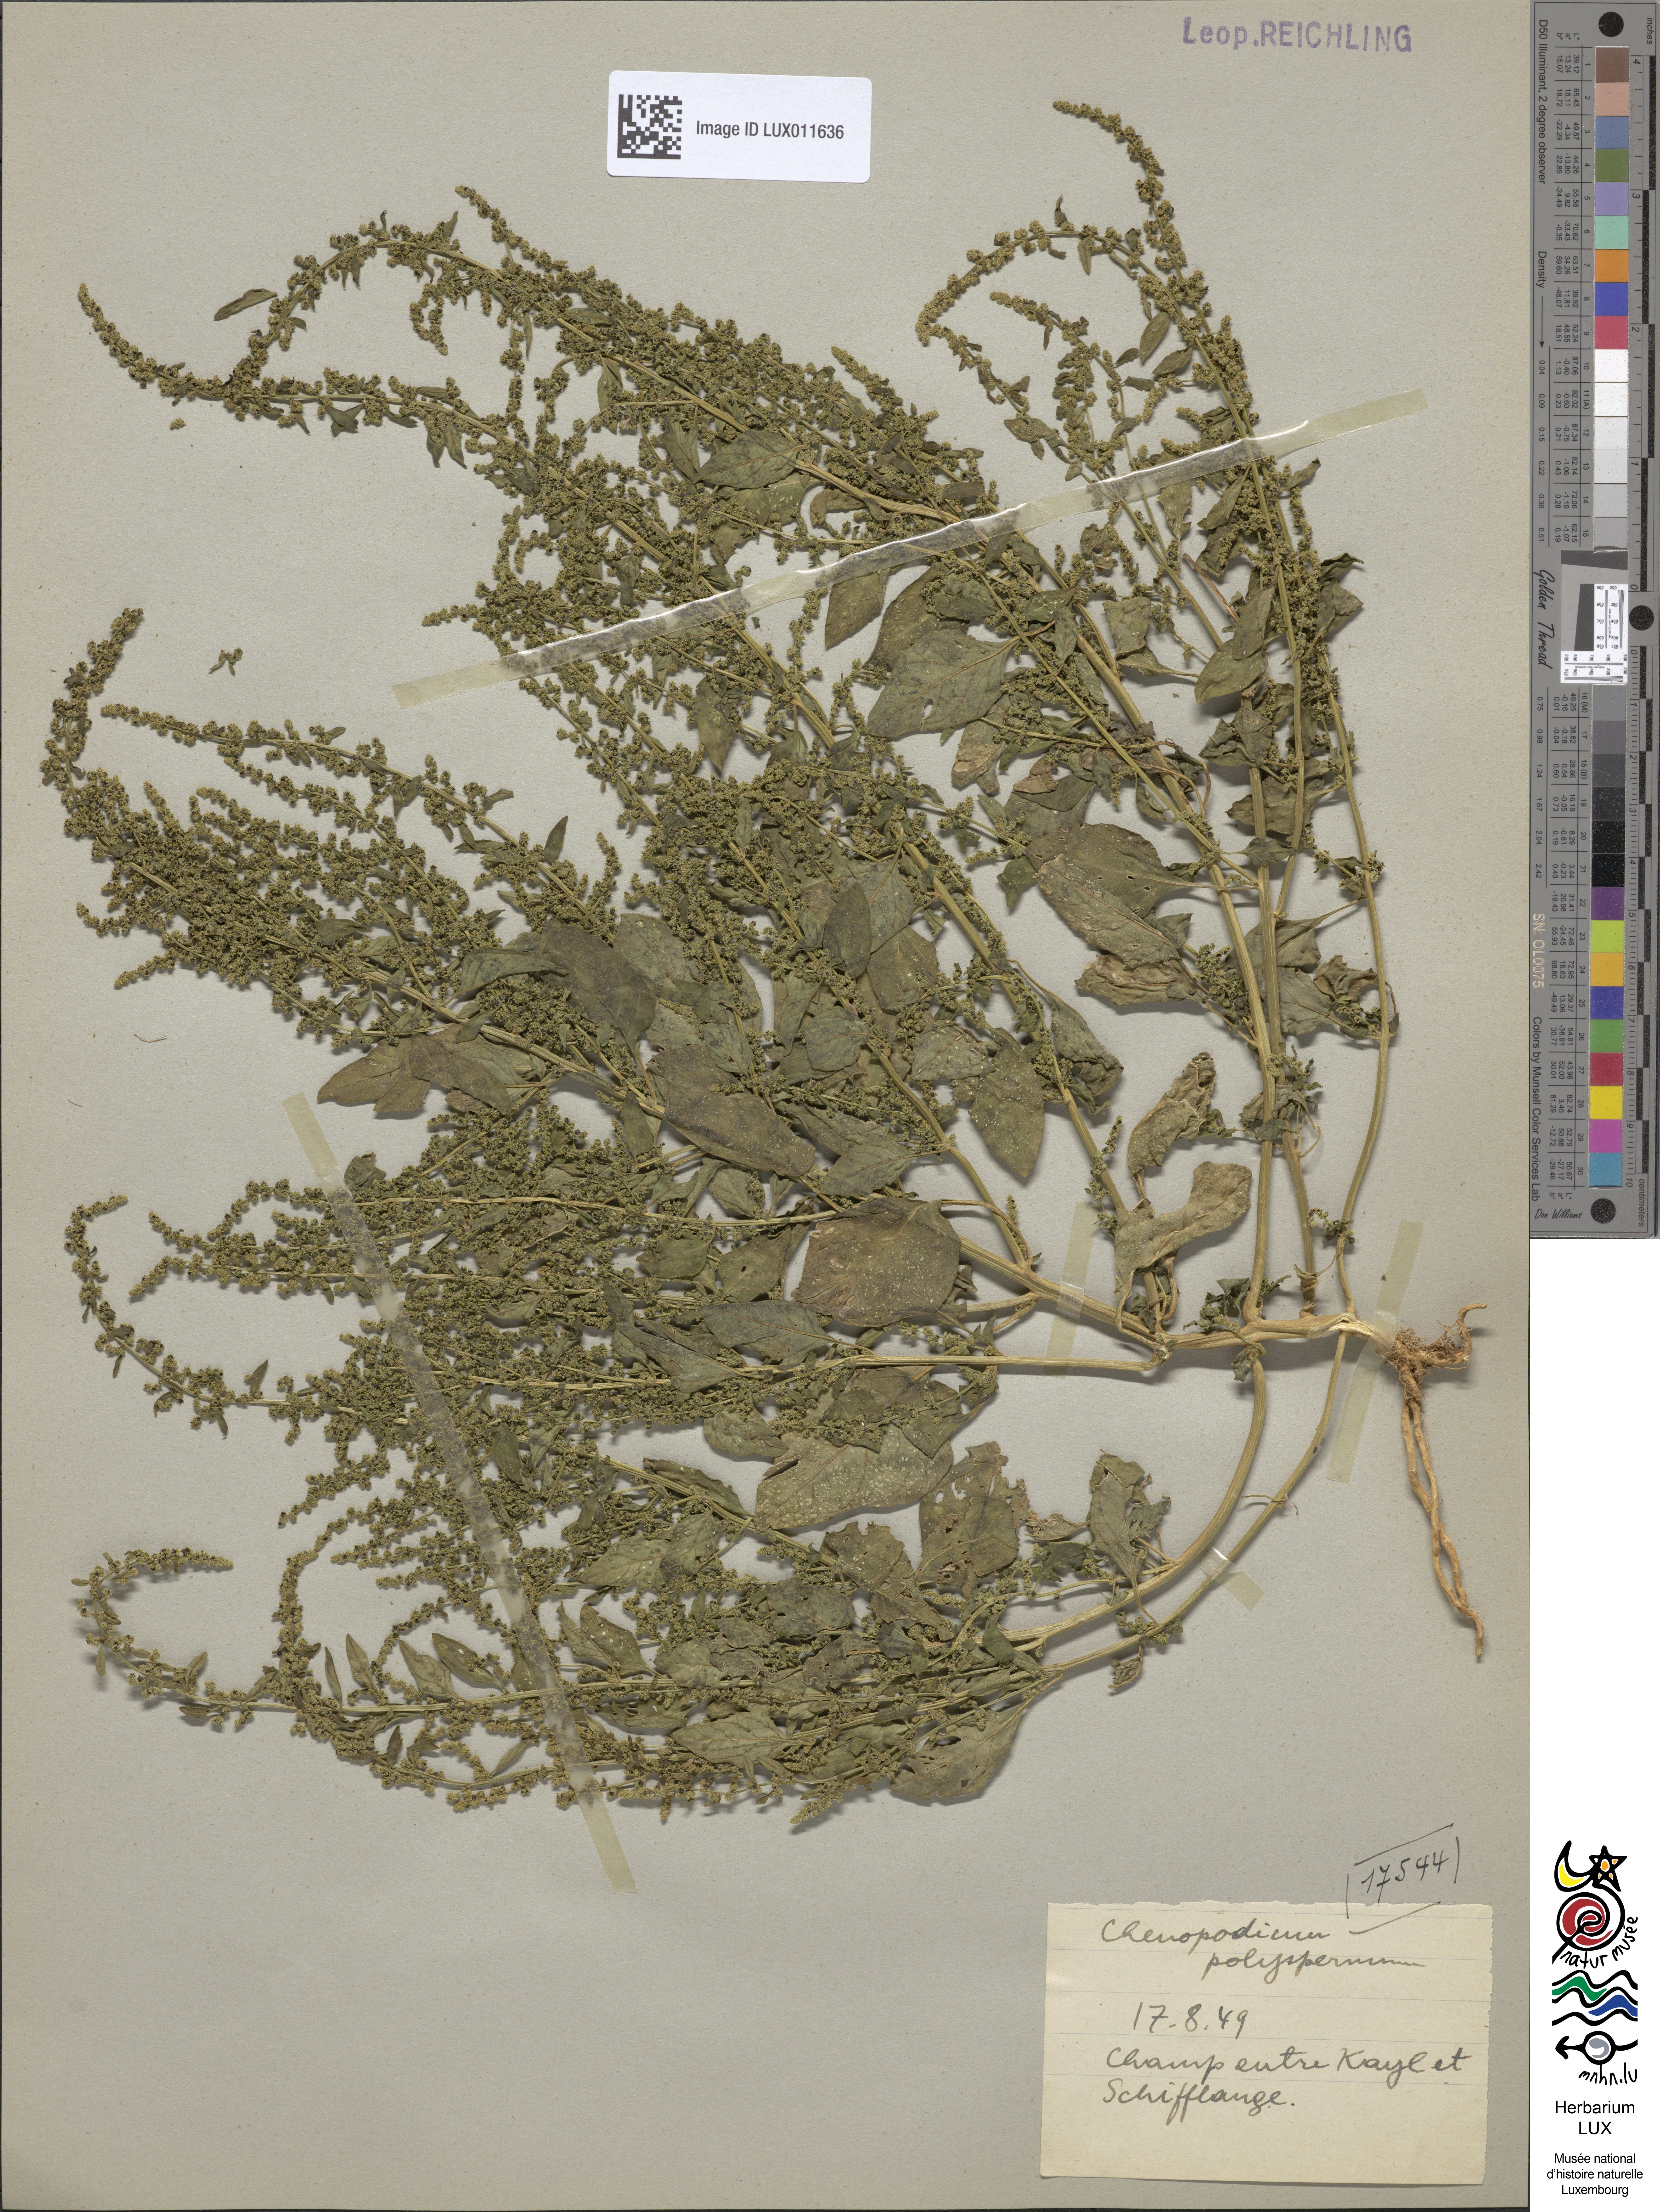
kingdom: Plantae
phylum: Tracheophyta
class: Magnoliopsida
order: Caryophyllales
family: Amaranthaceae
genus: Lipandra
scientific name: Lipandra polysperma
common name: Many-seed goosefoot
